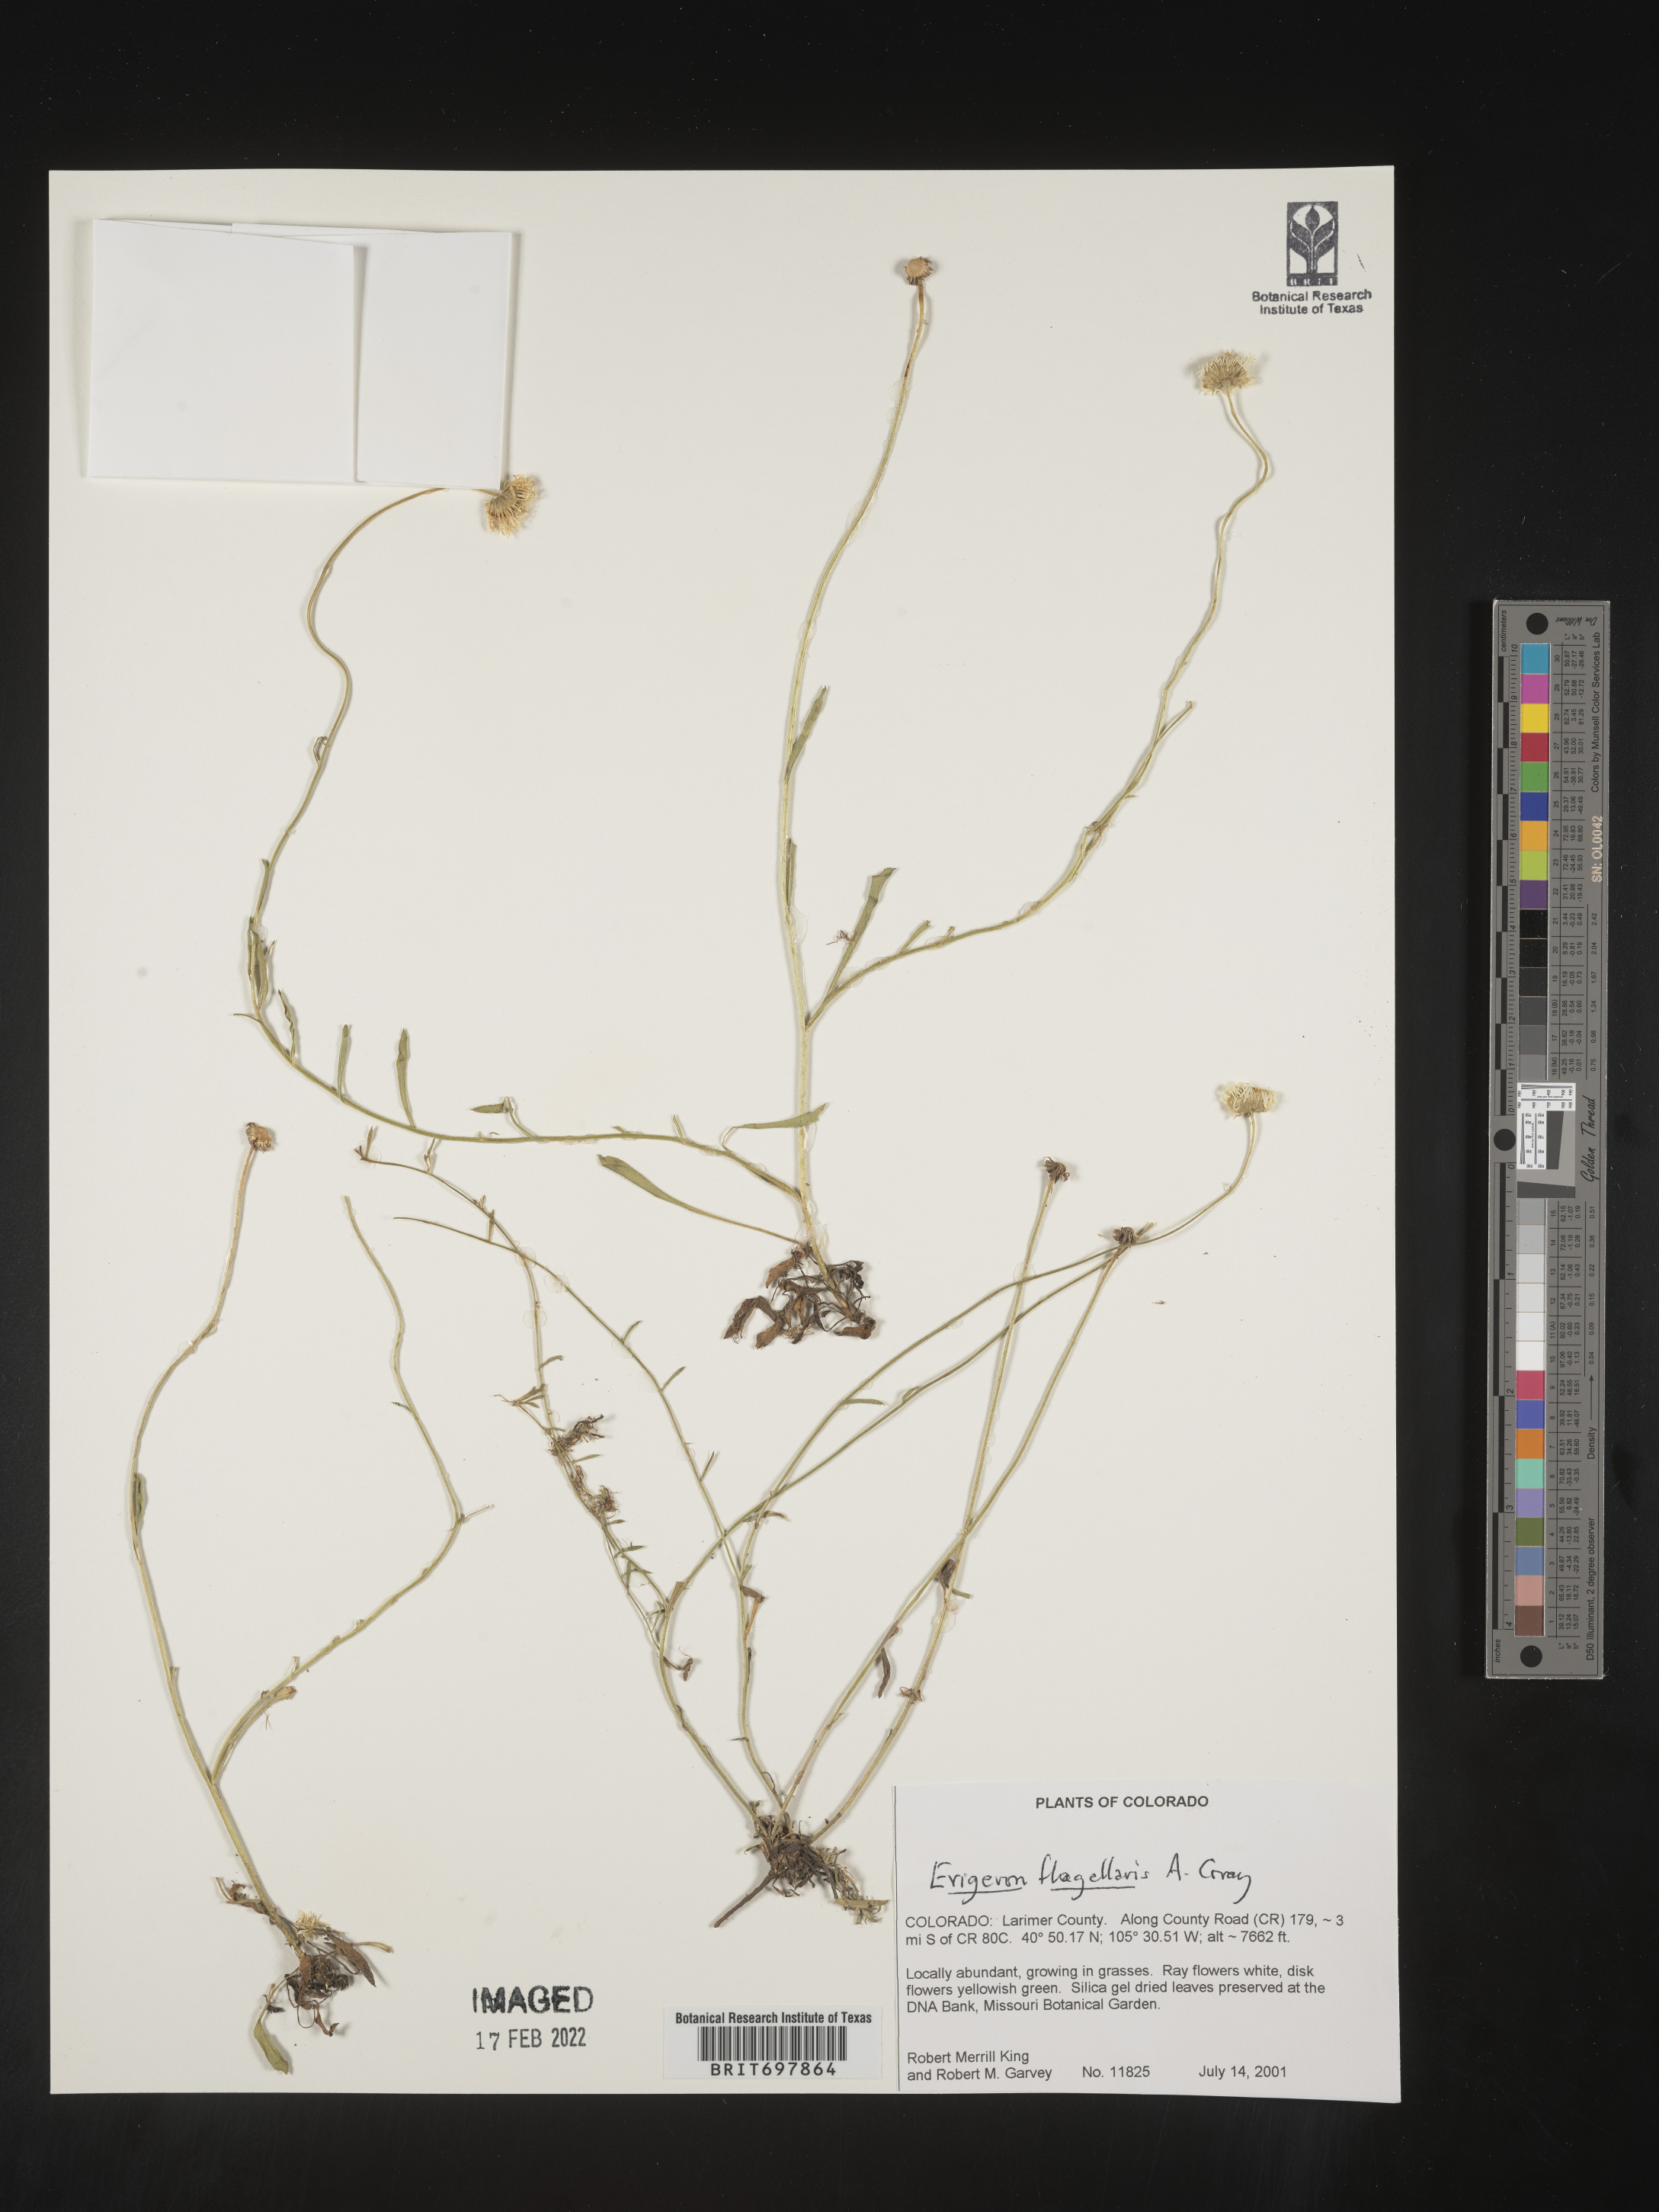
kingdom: Plantae
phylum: Tracheophyta
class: Magnoliopsida
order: Asterales
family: Asteraceae
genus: Erigeron
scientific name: Erigeron flagellaris
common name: Running fleabane
